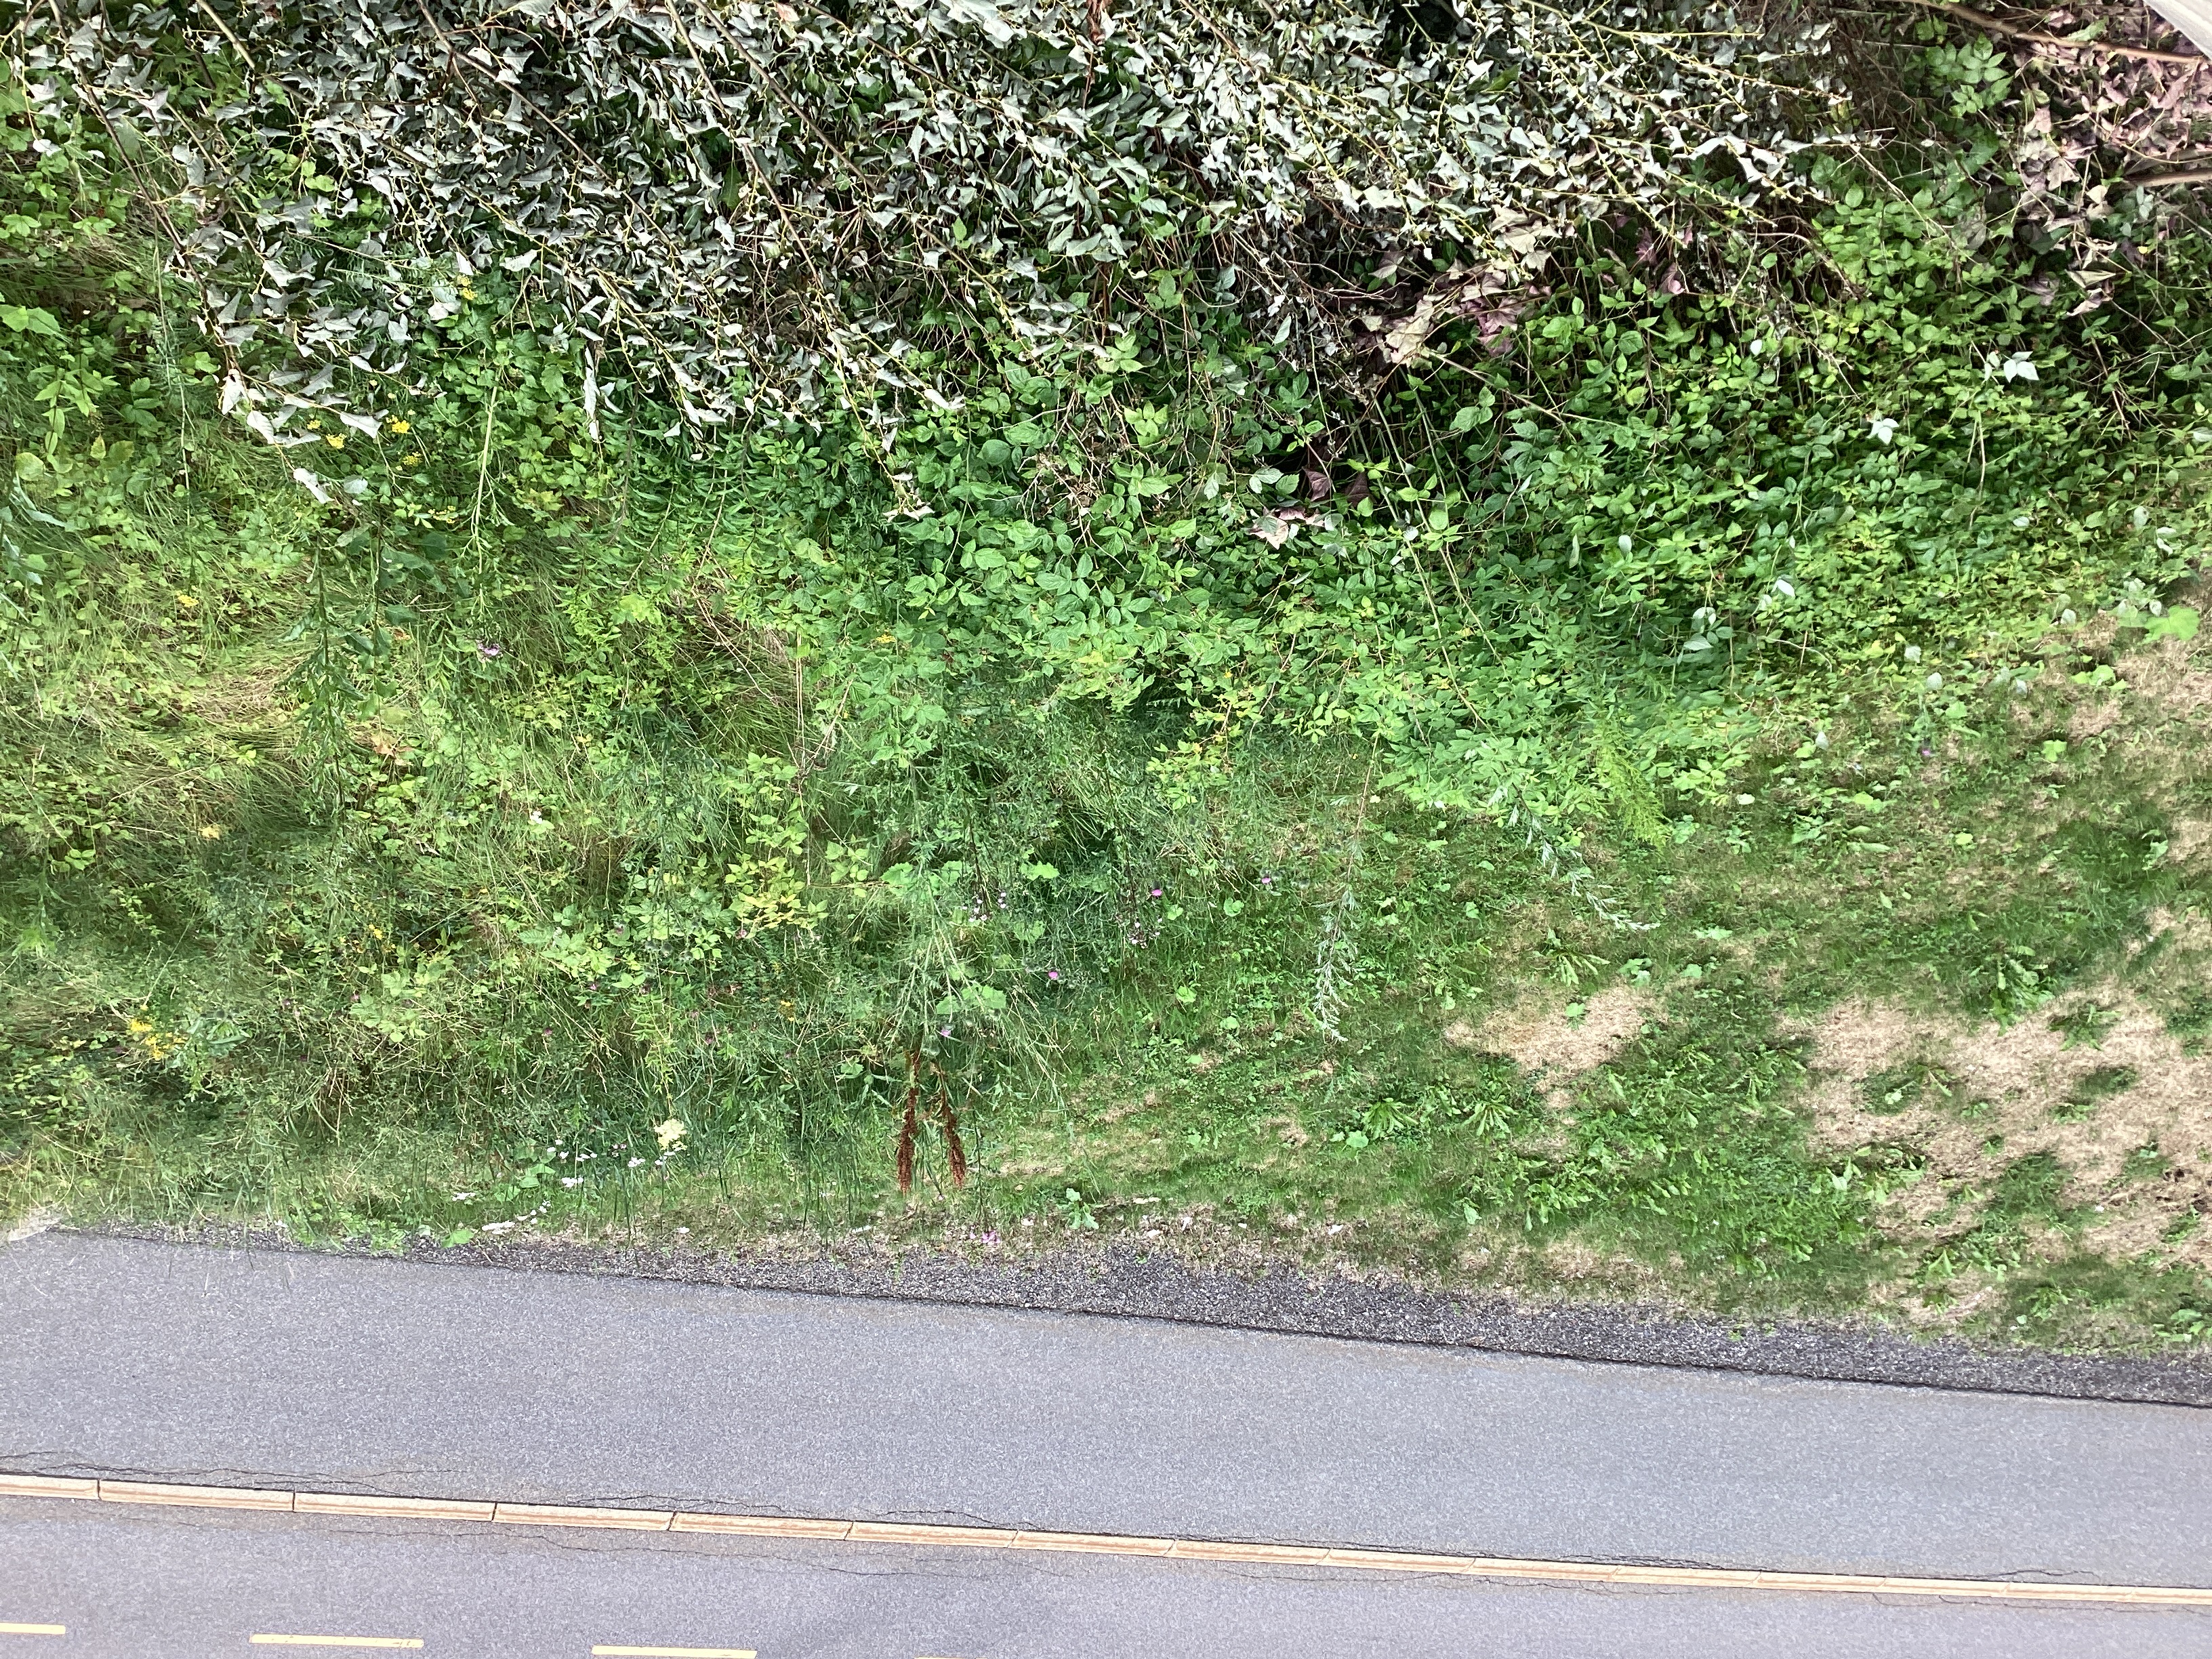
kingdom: Plantae
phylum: Tracheophyta
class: Magnoliopsida
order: Asterales
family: Asteraceae
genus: Solidago
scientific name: Solidago canadensis
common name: kanadagullris
